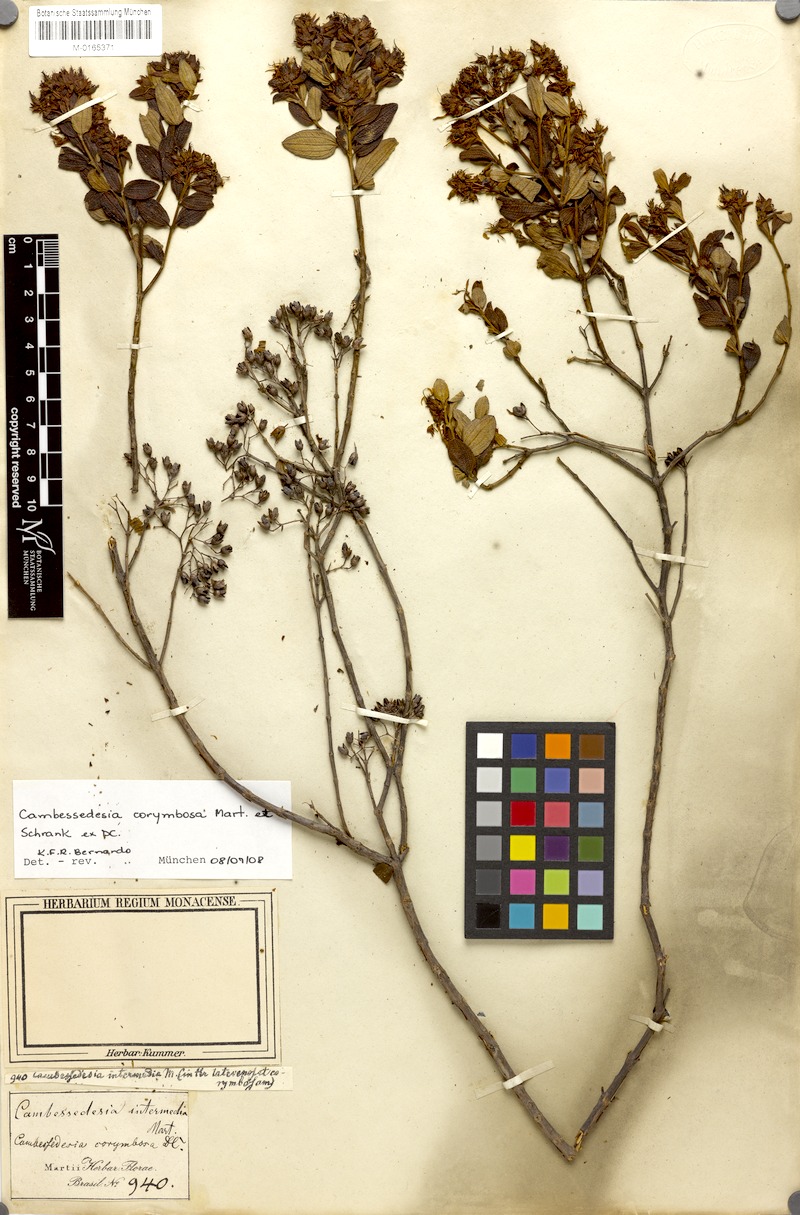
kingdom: Plantae
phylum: Tracheophyta
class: Magnoliopsida
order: Myrtales
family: Melastomataceae
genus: Cambessedesia
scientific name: Cambessedesia corymbosa
